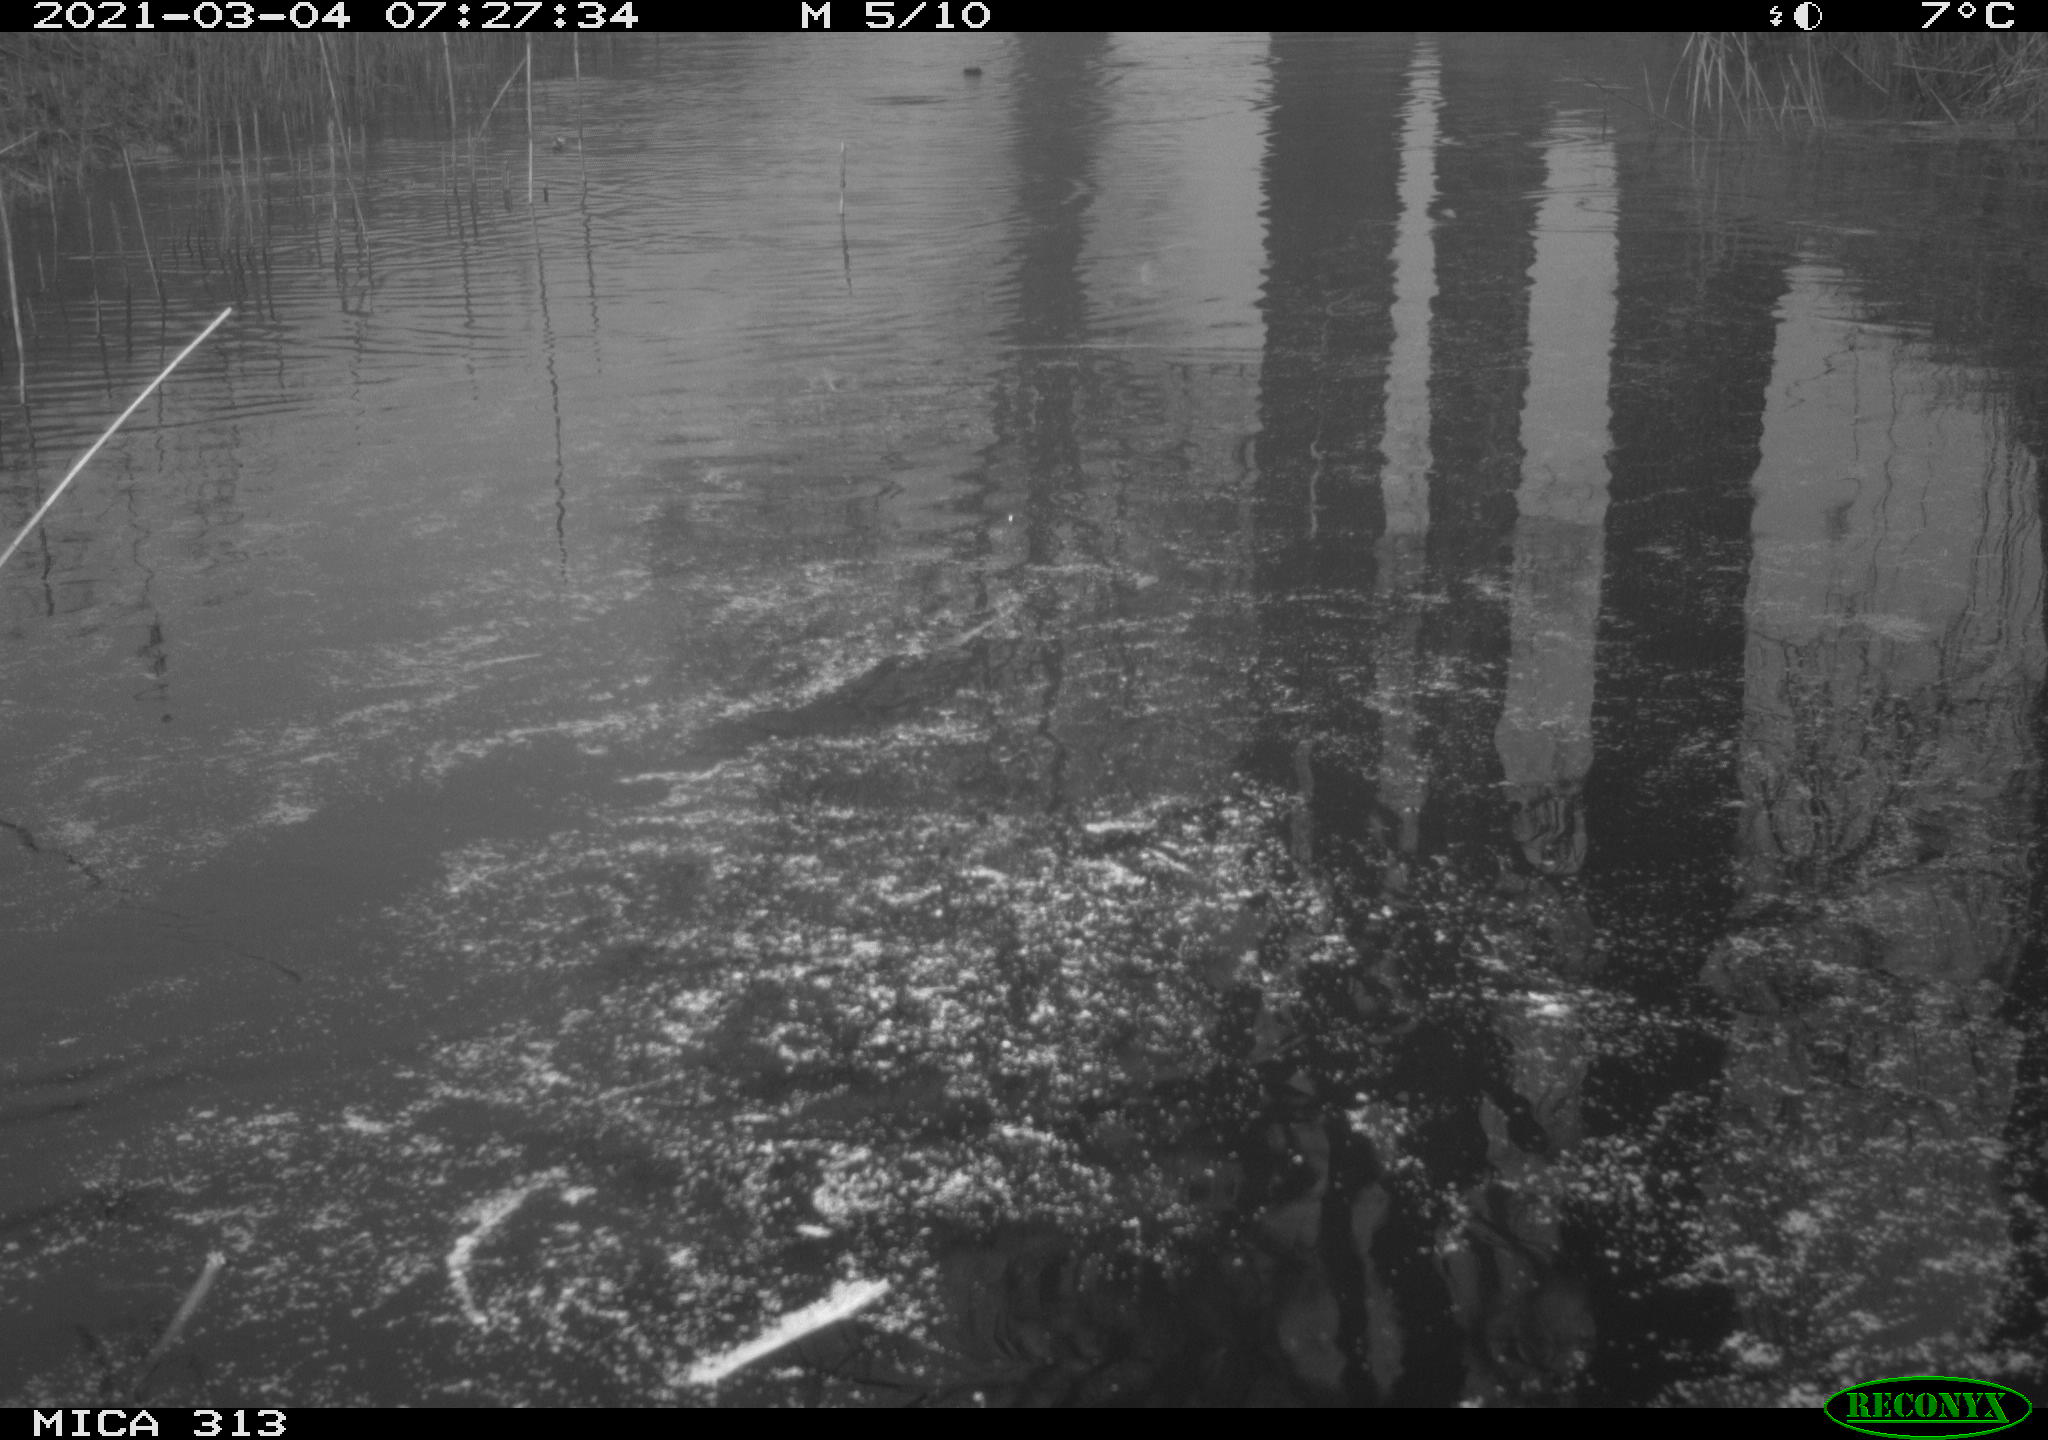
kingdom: Animalia
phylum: Chordata
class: Aves
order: Gruiformes
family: Rallidae
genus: Gallinula
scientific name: Gallinula chloropus
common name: Common moorhen
